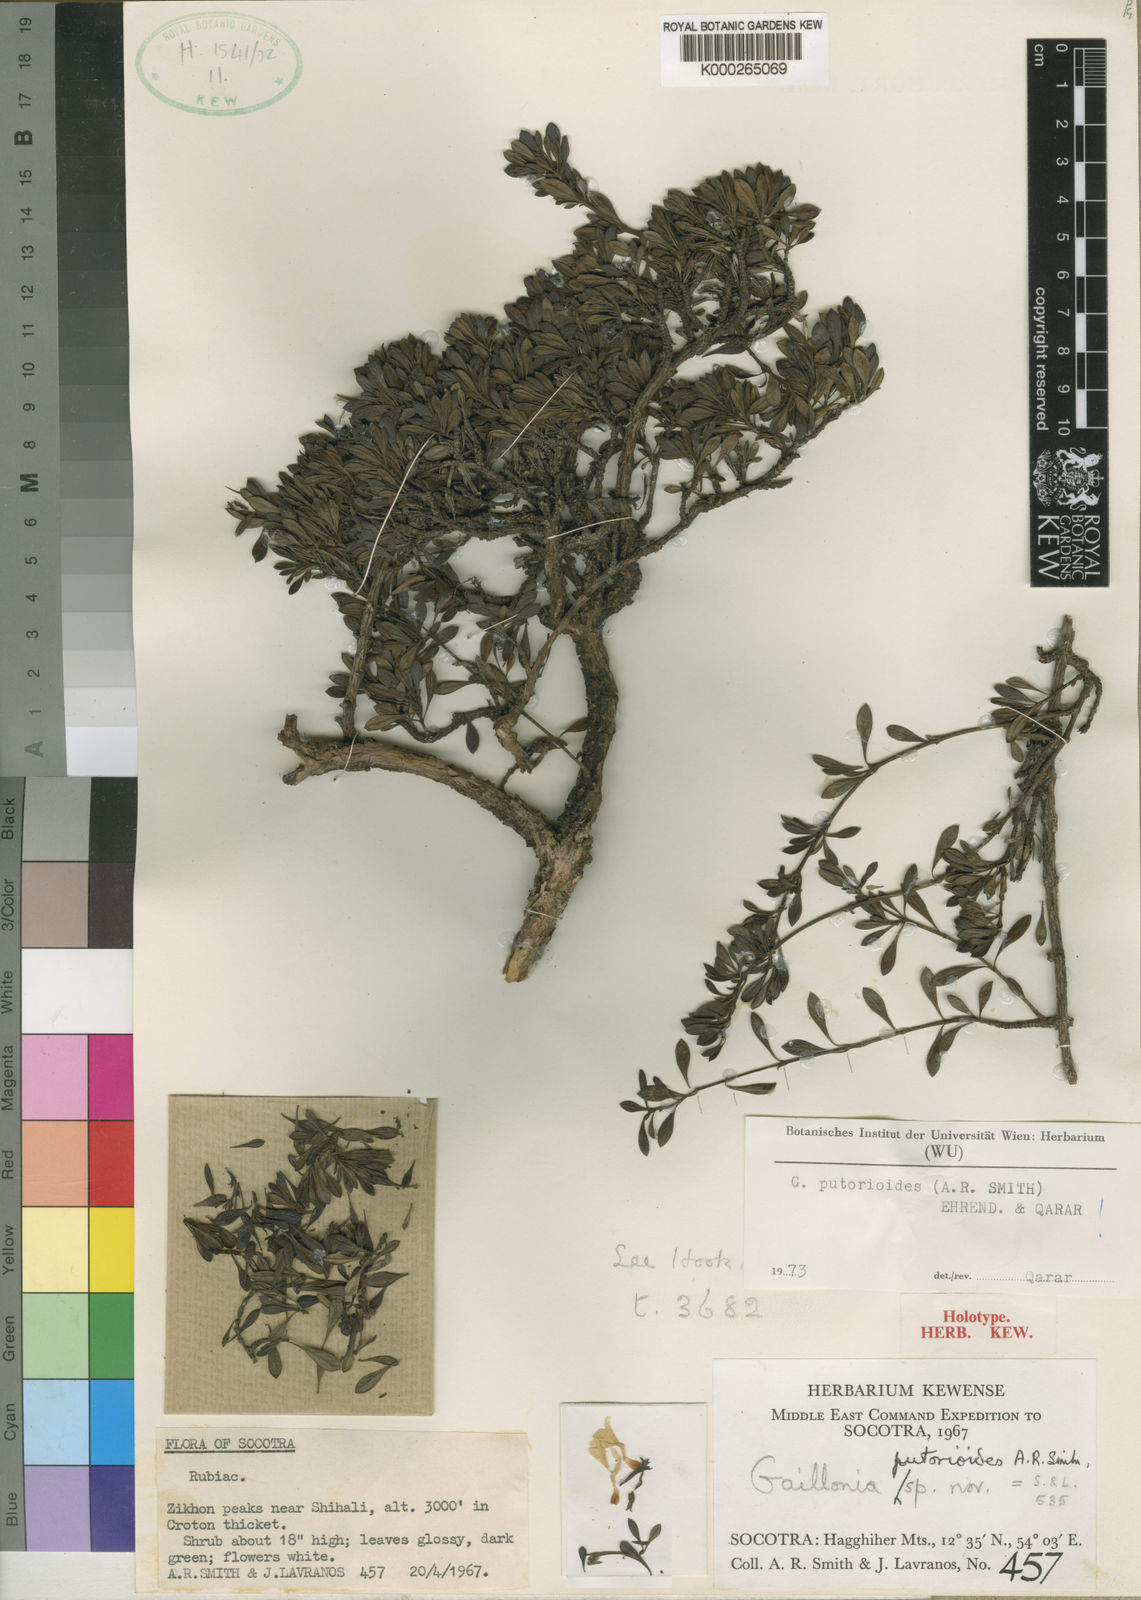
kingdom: Plantae
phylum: Tracheophyta
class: Magnoliopsida
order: Gentianales
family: Rubiaceae
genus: Plocama
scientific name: Plocama putorioides
